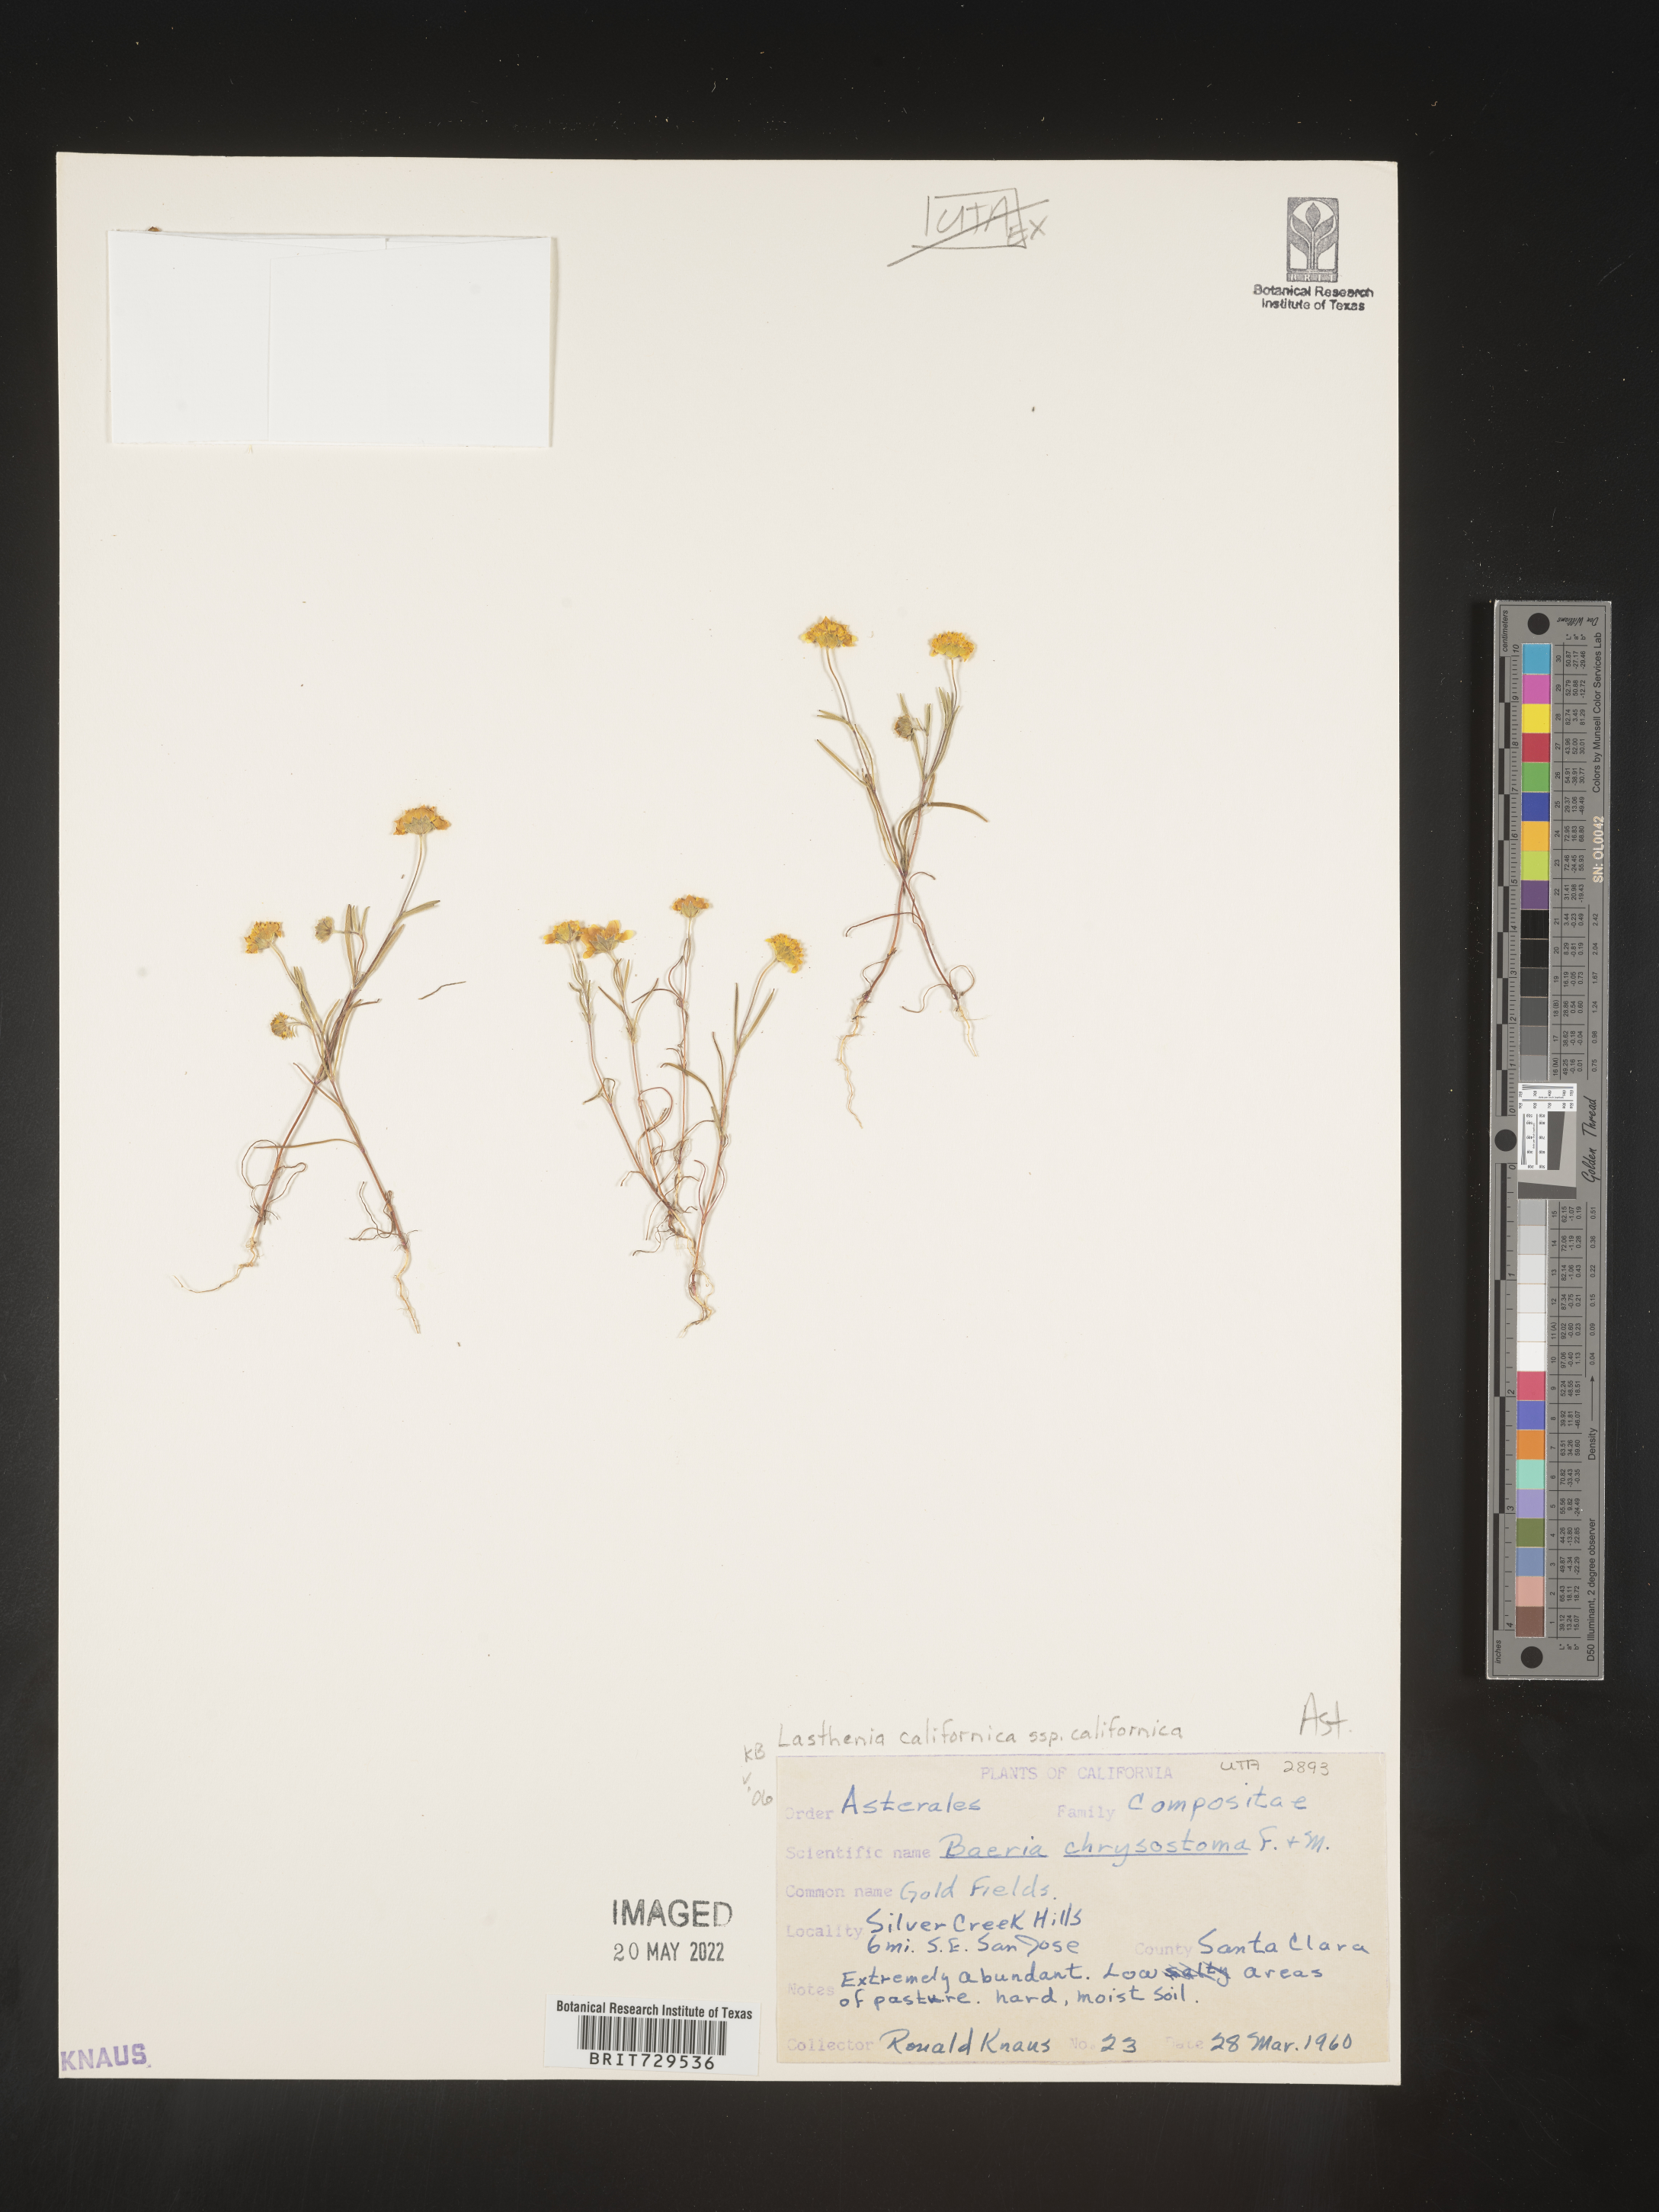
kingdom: Plantae
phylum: Tracheophyta
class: Magnoliopsida
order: Asterales
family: Asteraceae
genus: Lasthenia
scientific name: Lasthenia
